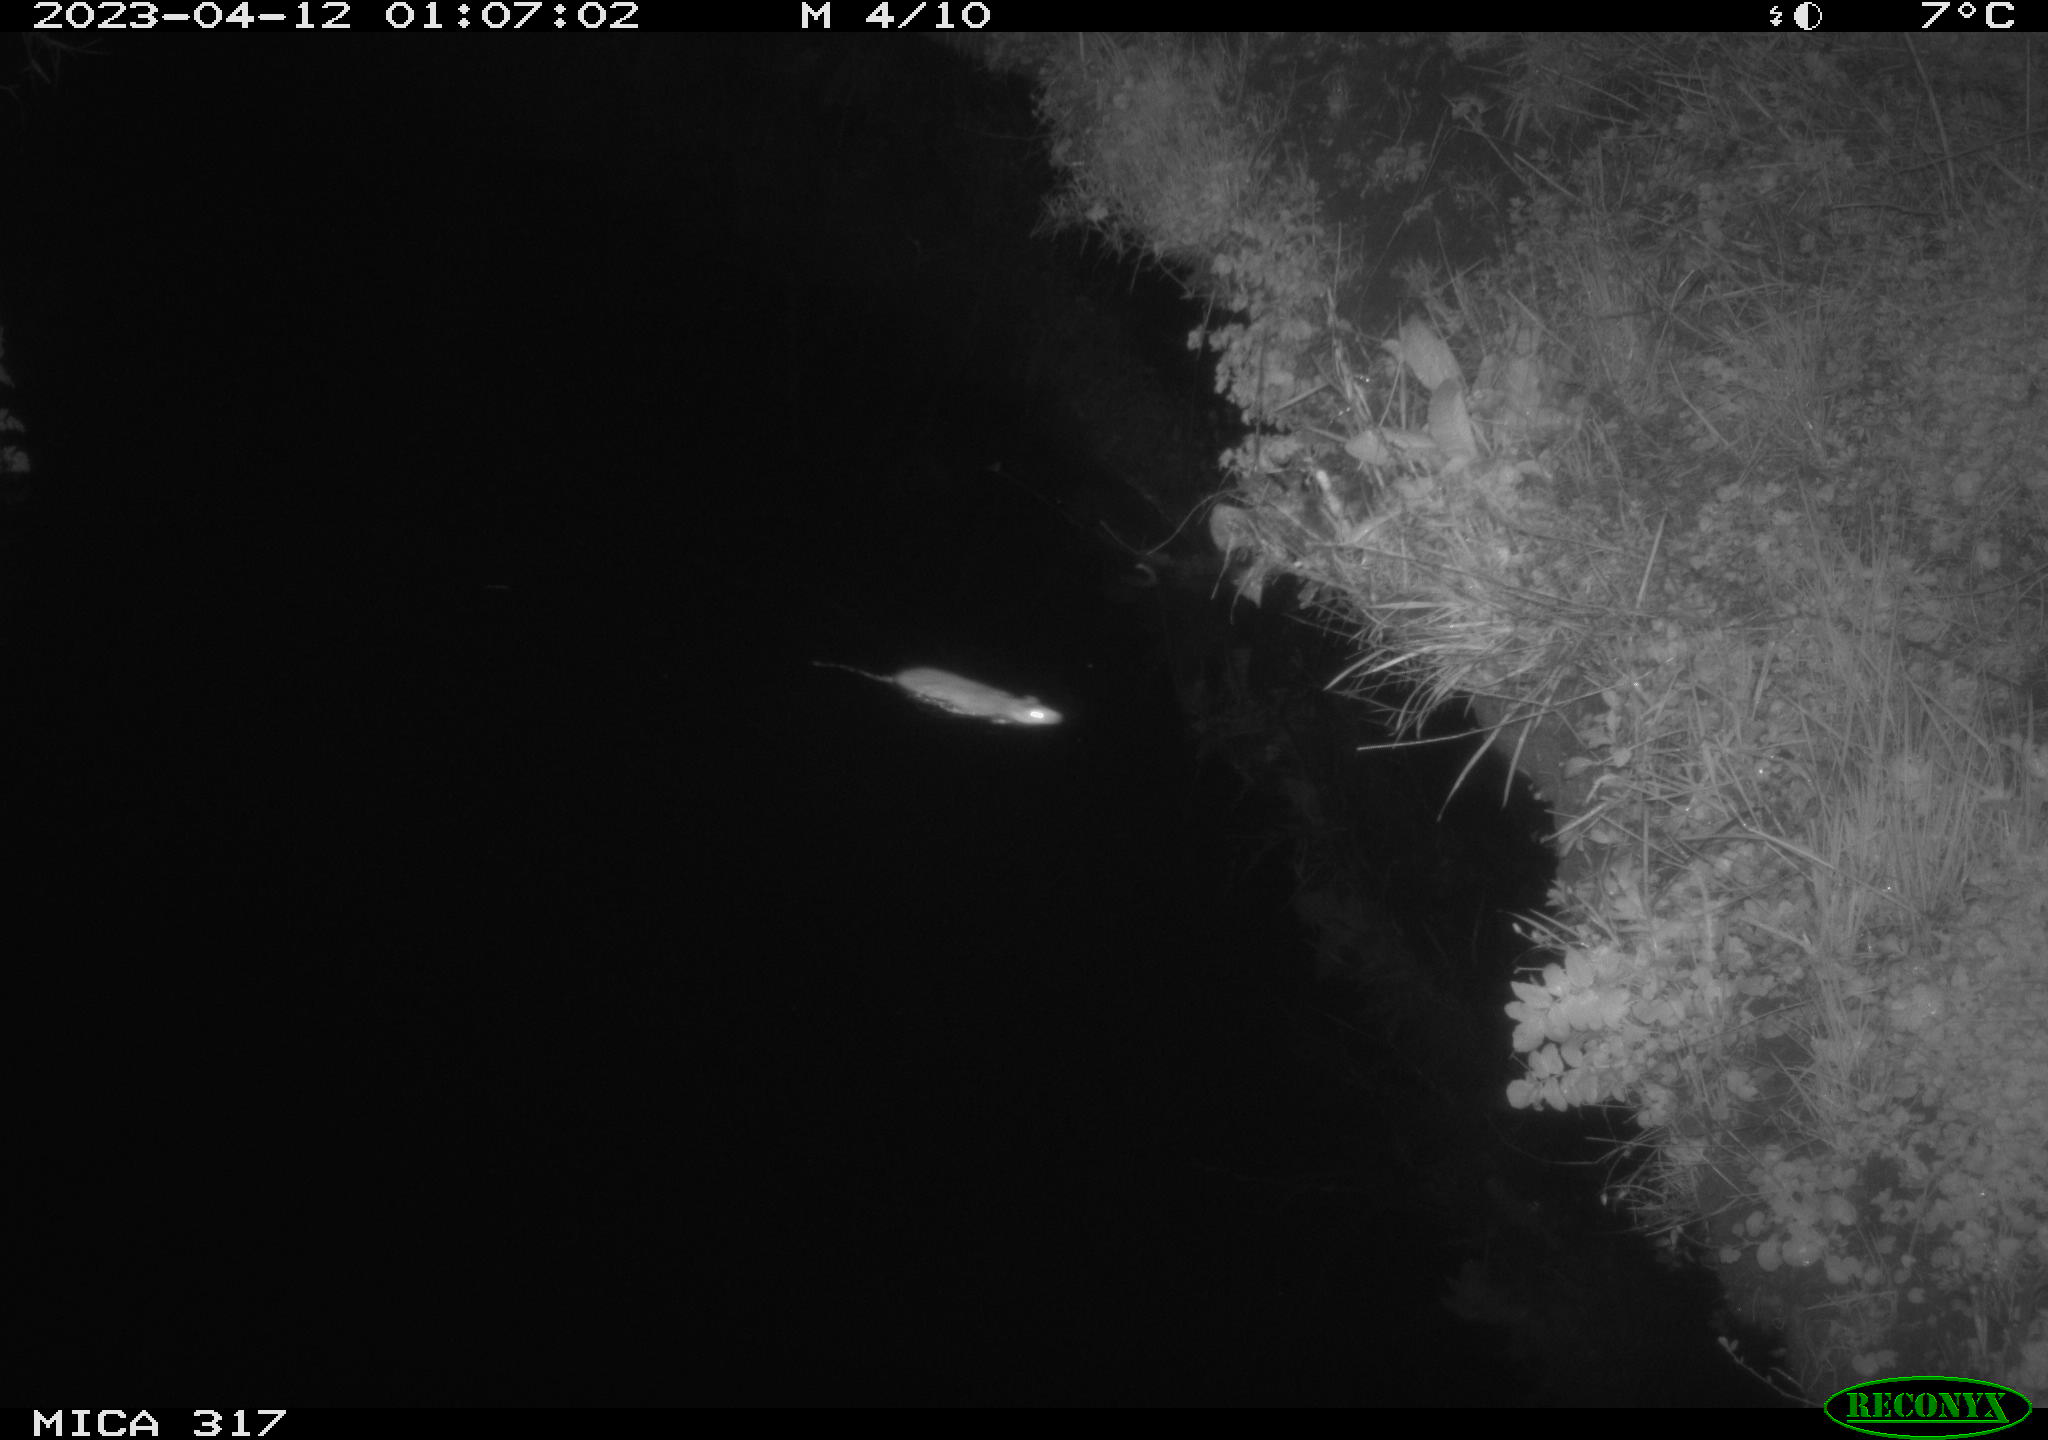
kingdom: Animalia
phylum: Chordata
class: Mammalia
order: Rodentia
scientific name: Rodentia
